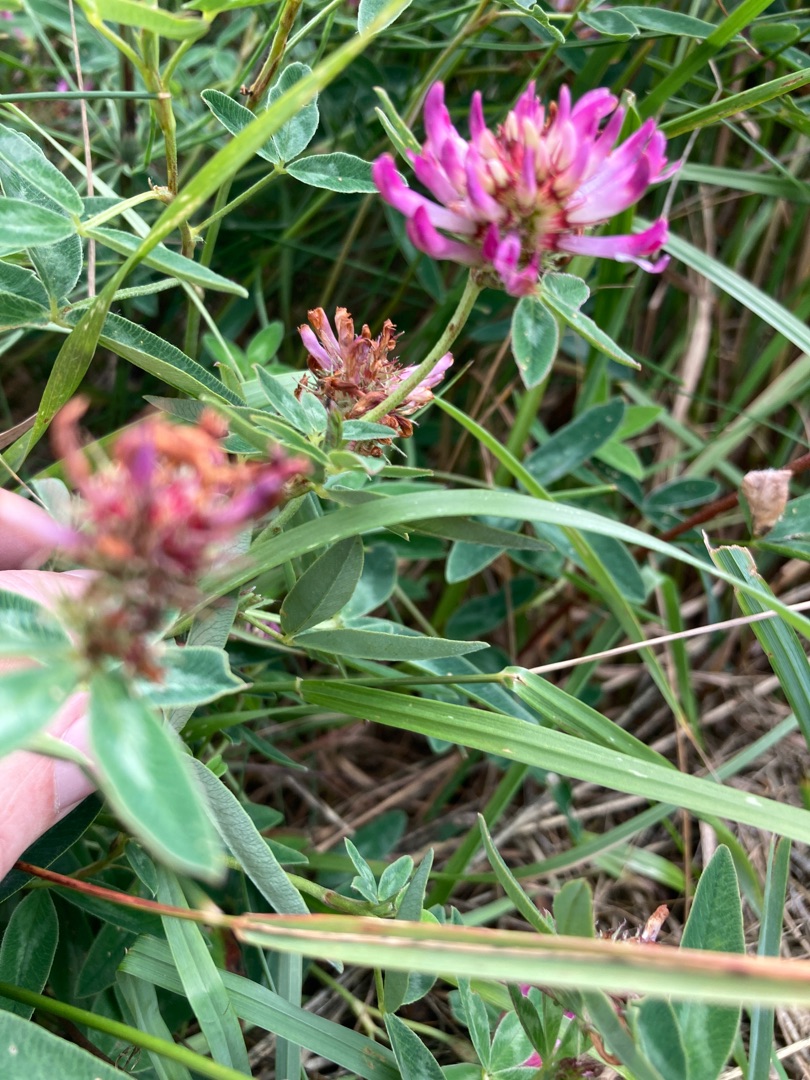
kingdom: Plantae
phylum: Tracheophyta
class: Magnoliopsida
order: Fabales
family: Fabaceae
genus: Trifolium
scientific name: Trifolium medium
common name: Bugtet kløver
